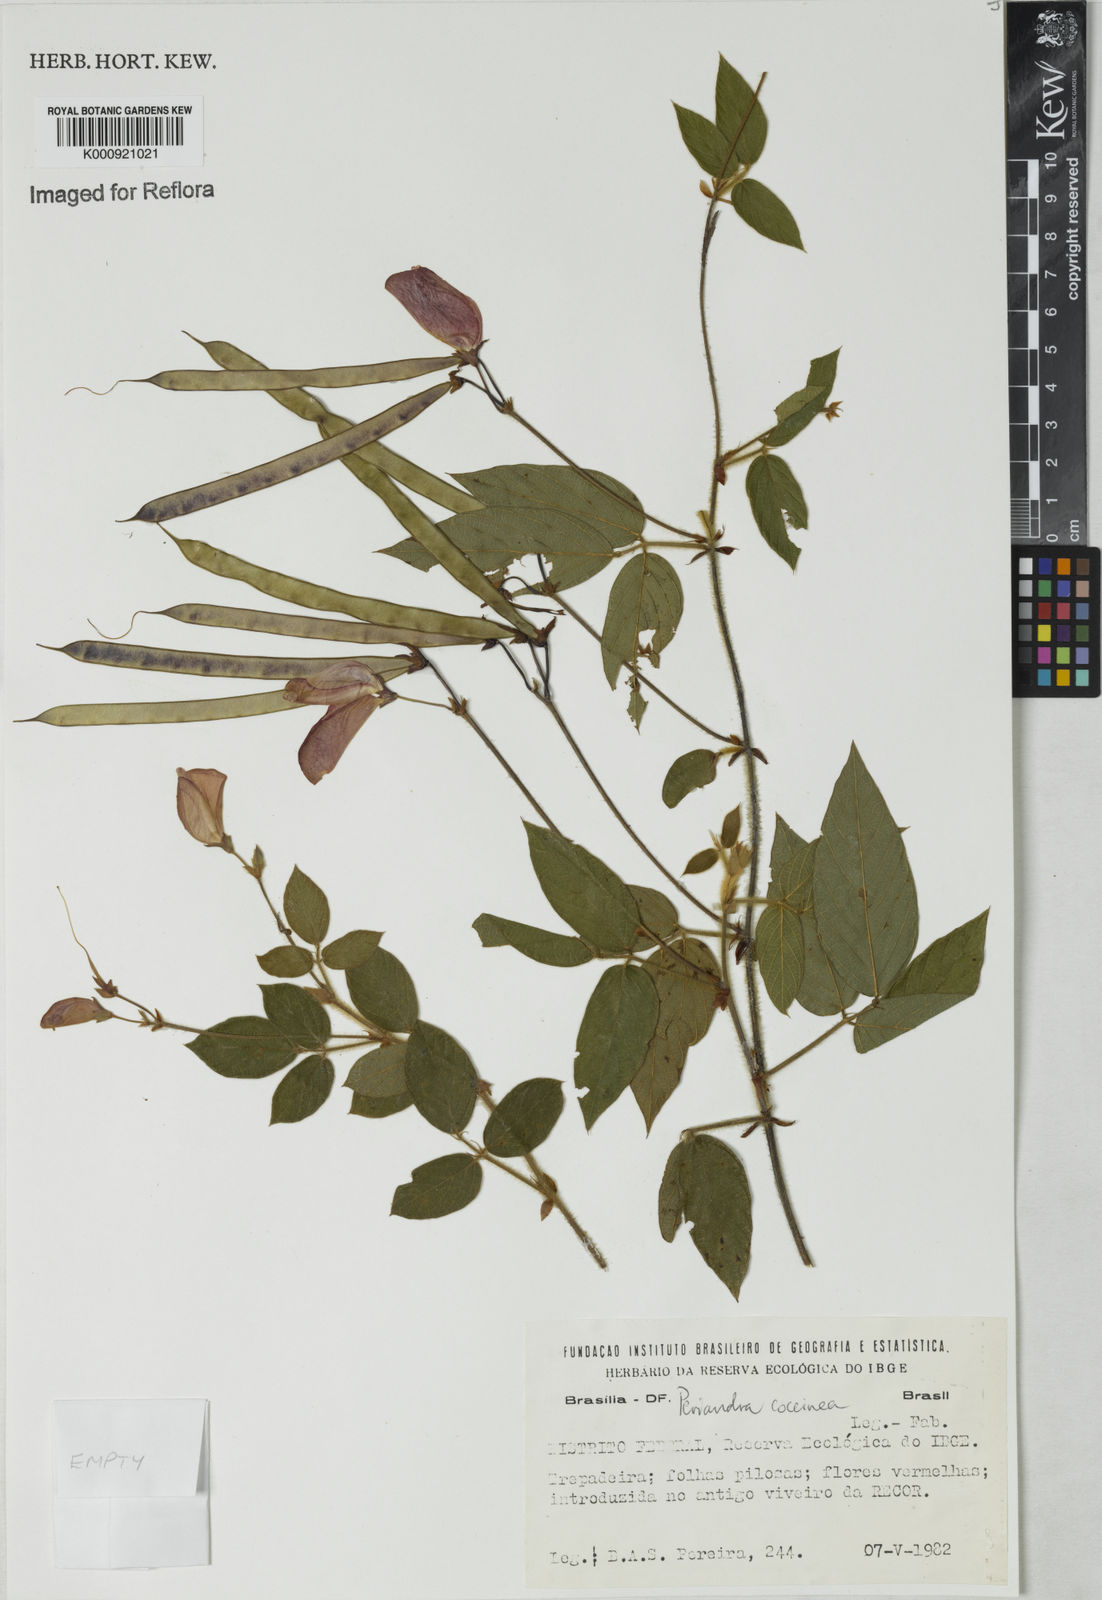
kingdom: Plantae
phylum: Tracheophyta
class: Magnoliopsida
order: Fabales
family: Fabaceae
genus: Periandra
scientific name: Periandra coccinea
